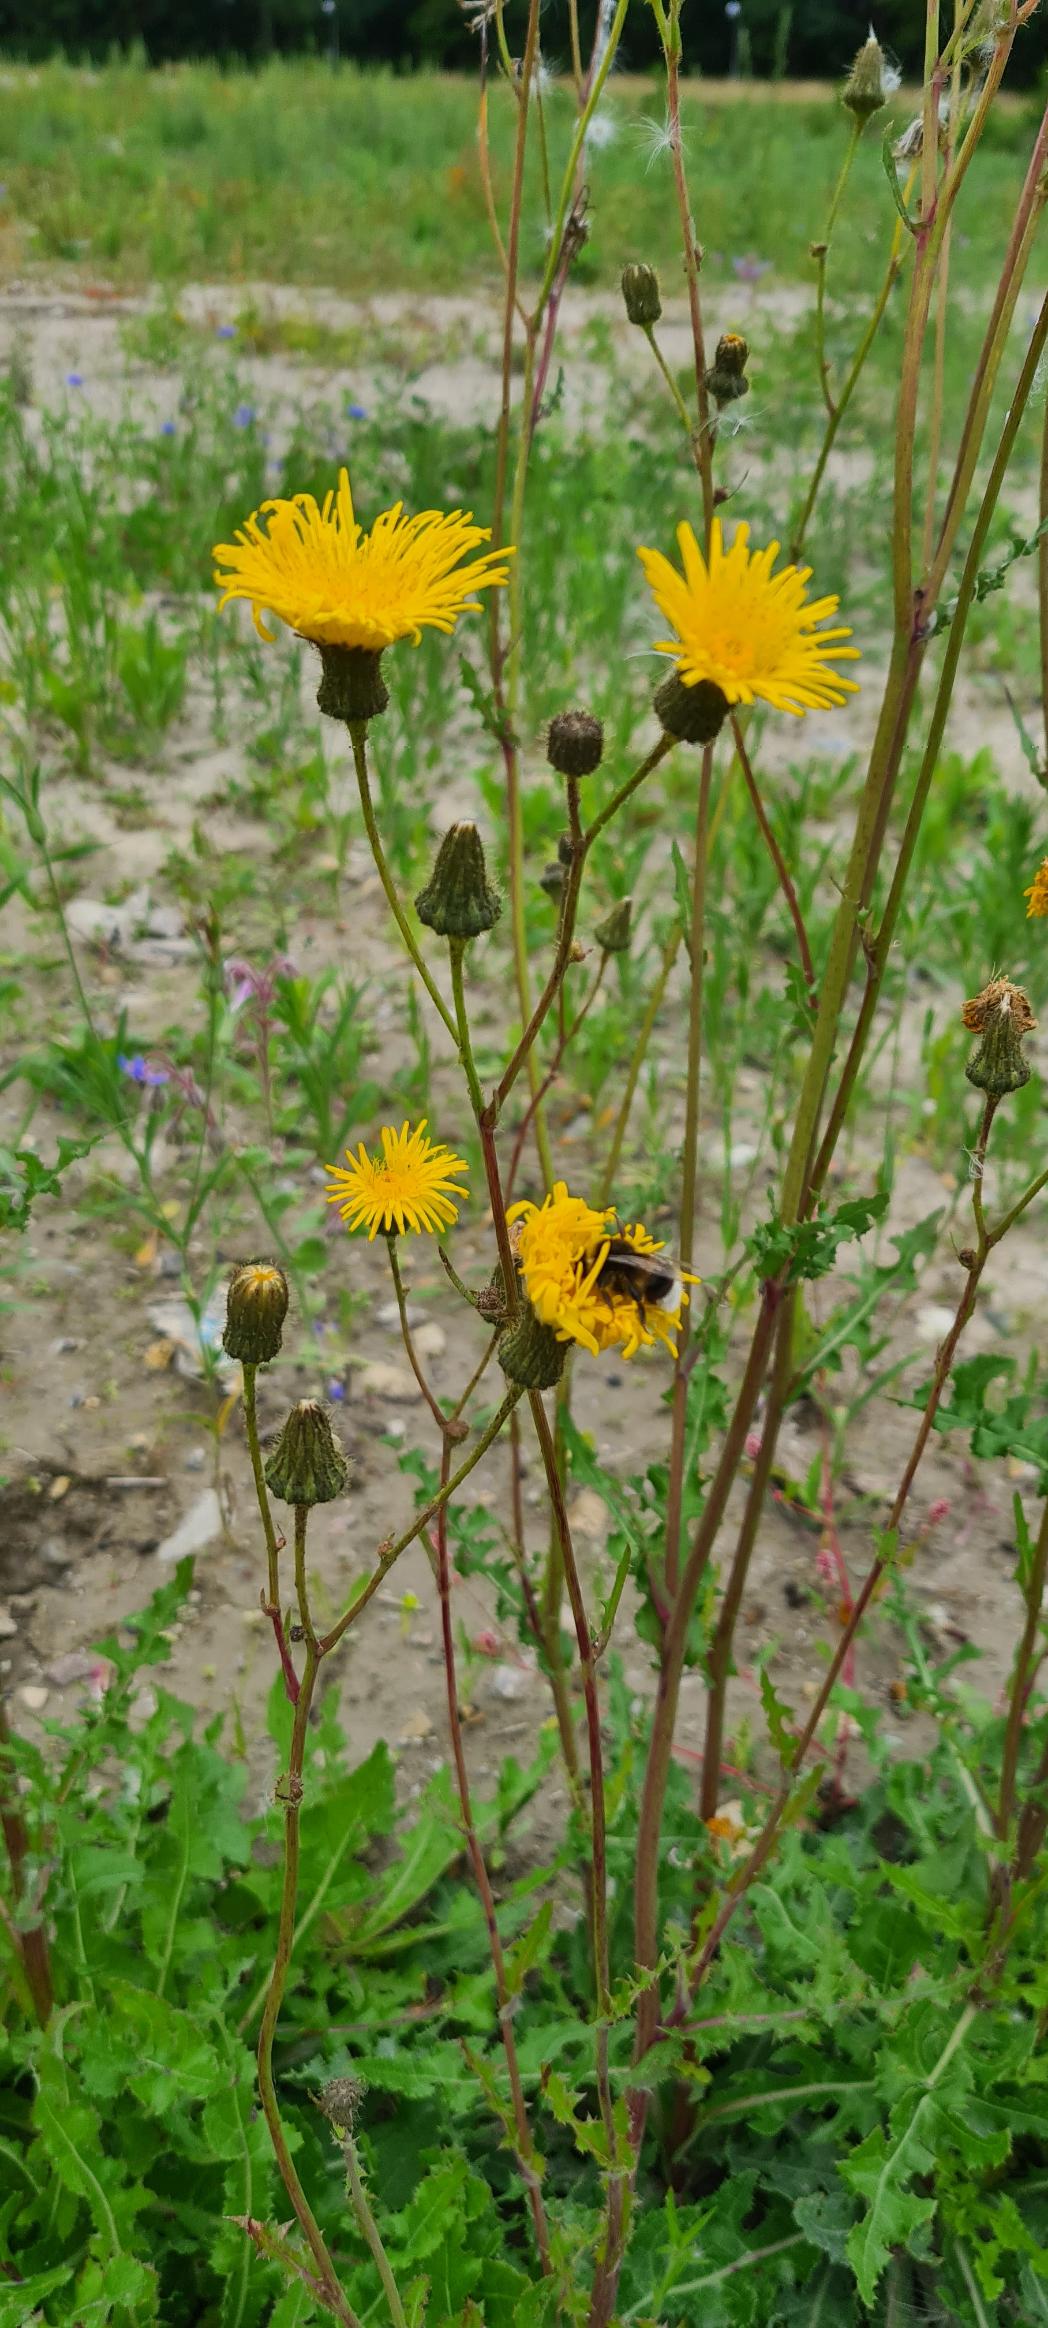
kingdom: Plantae
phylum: Tracheophyta
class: Magnoliopsida
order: Asterales
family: Asteraceae
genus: Sonchus
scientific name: Sonchus arvensis
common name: Ager-svinemælk
